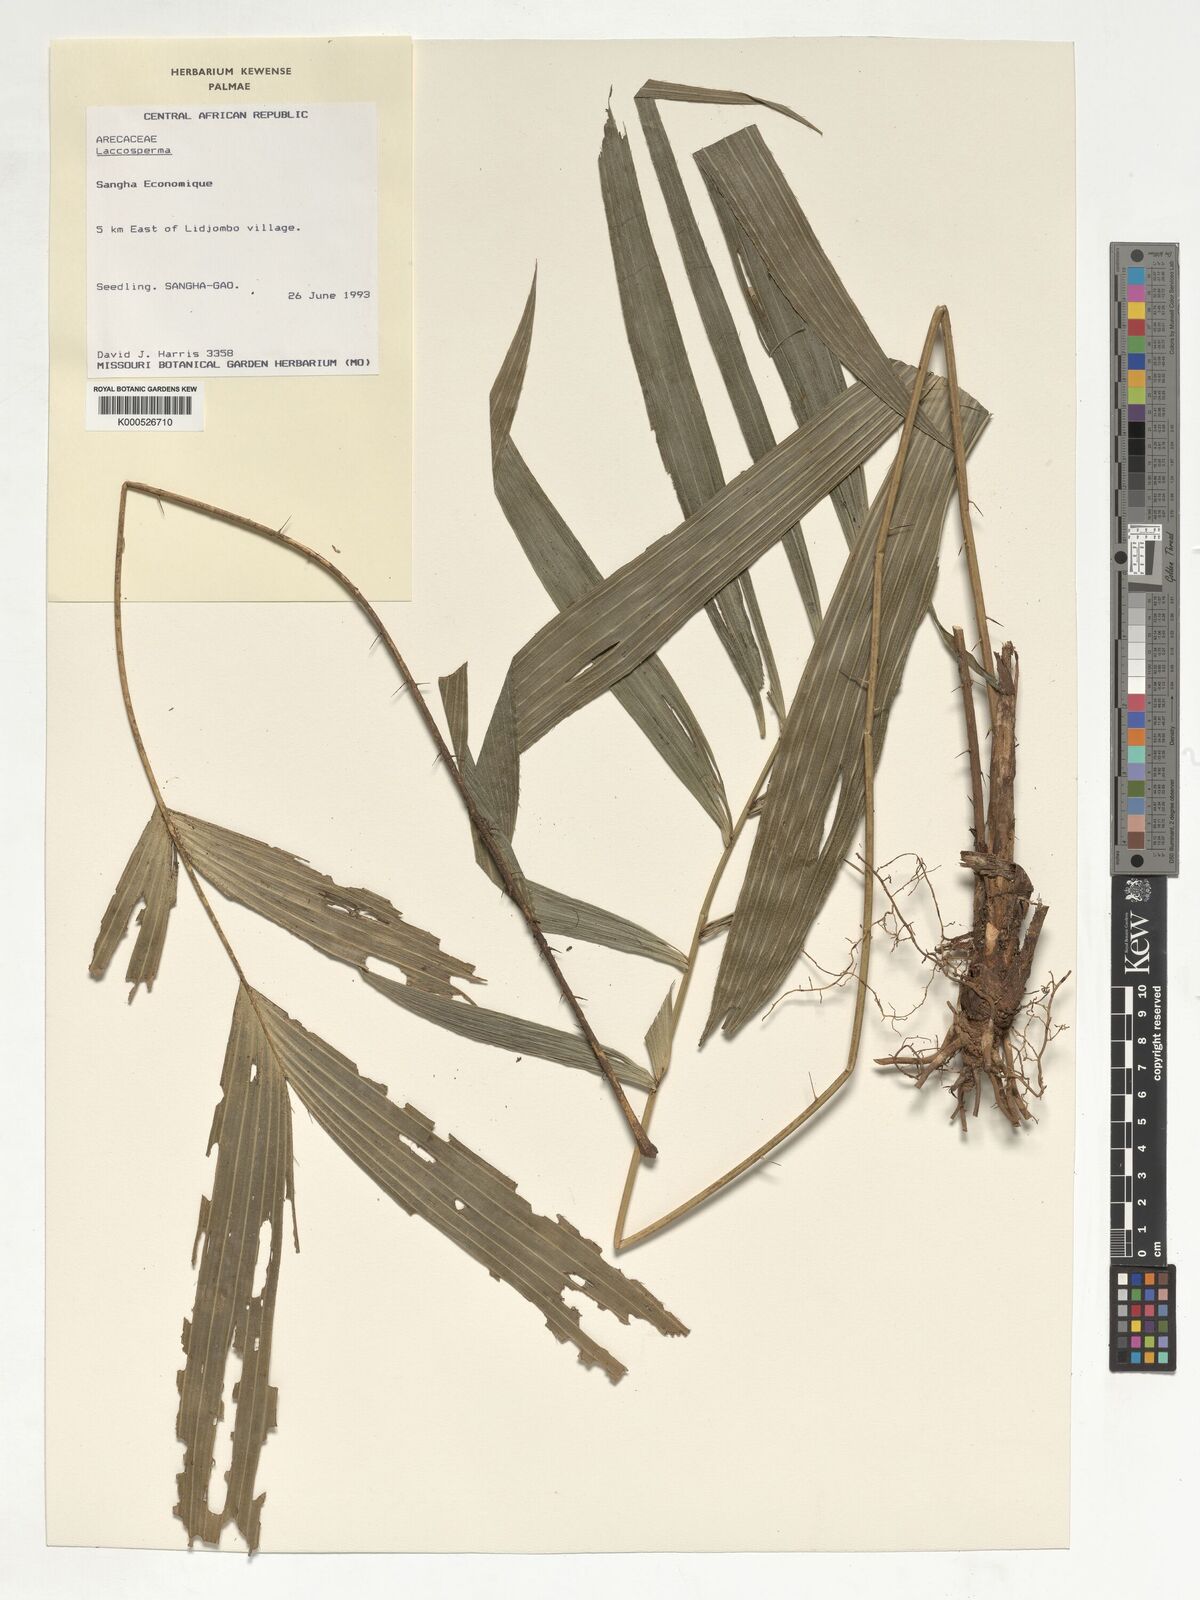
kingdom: Plantae
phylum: Tracheophyta
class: Liliopsida
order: Arecales
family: Arecaceae
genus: Laccosperma
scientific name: Laccosperma
